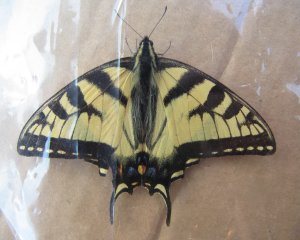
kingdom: Animalia
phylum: Arthropoda
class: Insecta
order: Lepidoptera
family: Papilionidae
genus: Pterourus
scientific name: Pterourus canadensis
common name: Canadian Tiger Swallowtail
